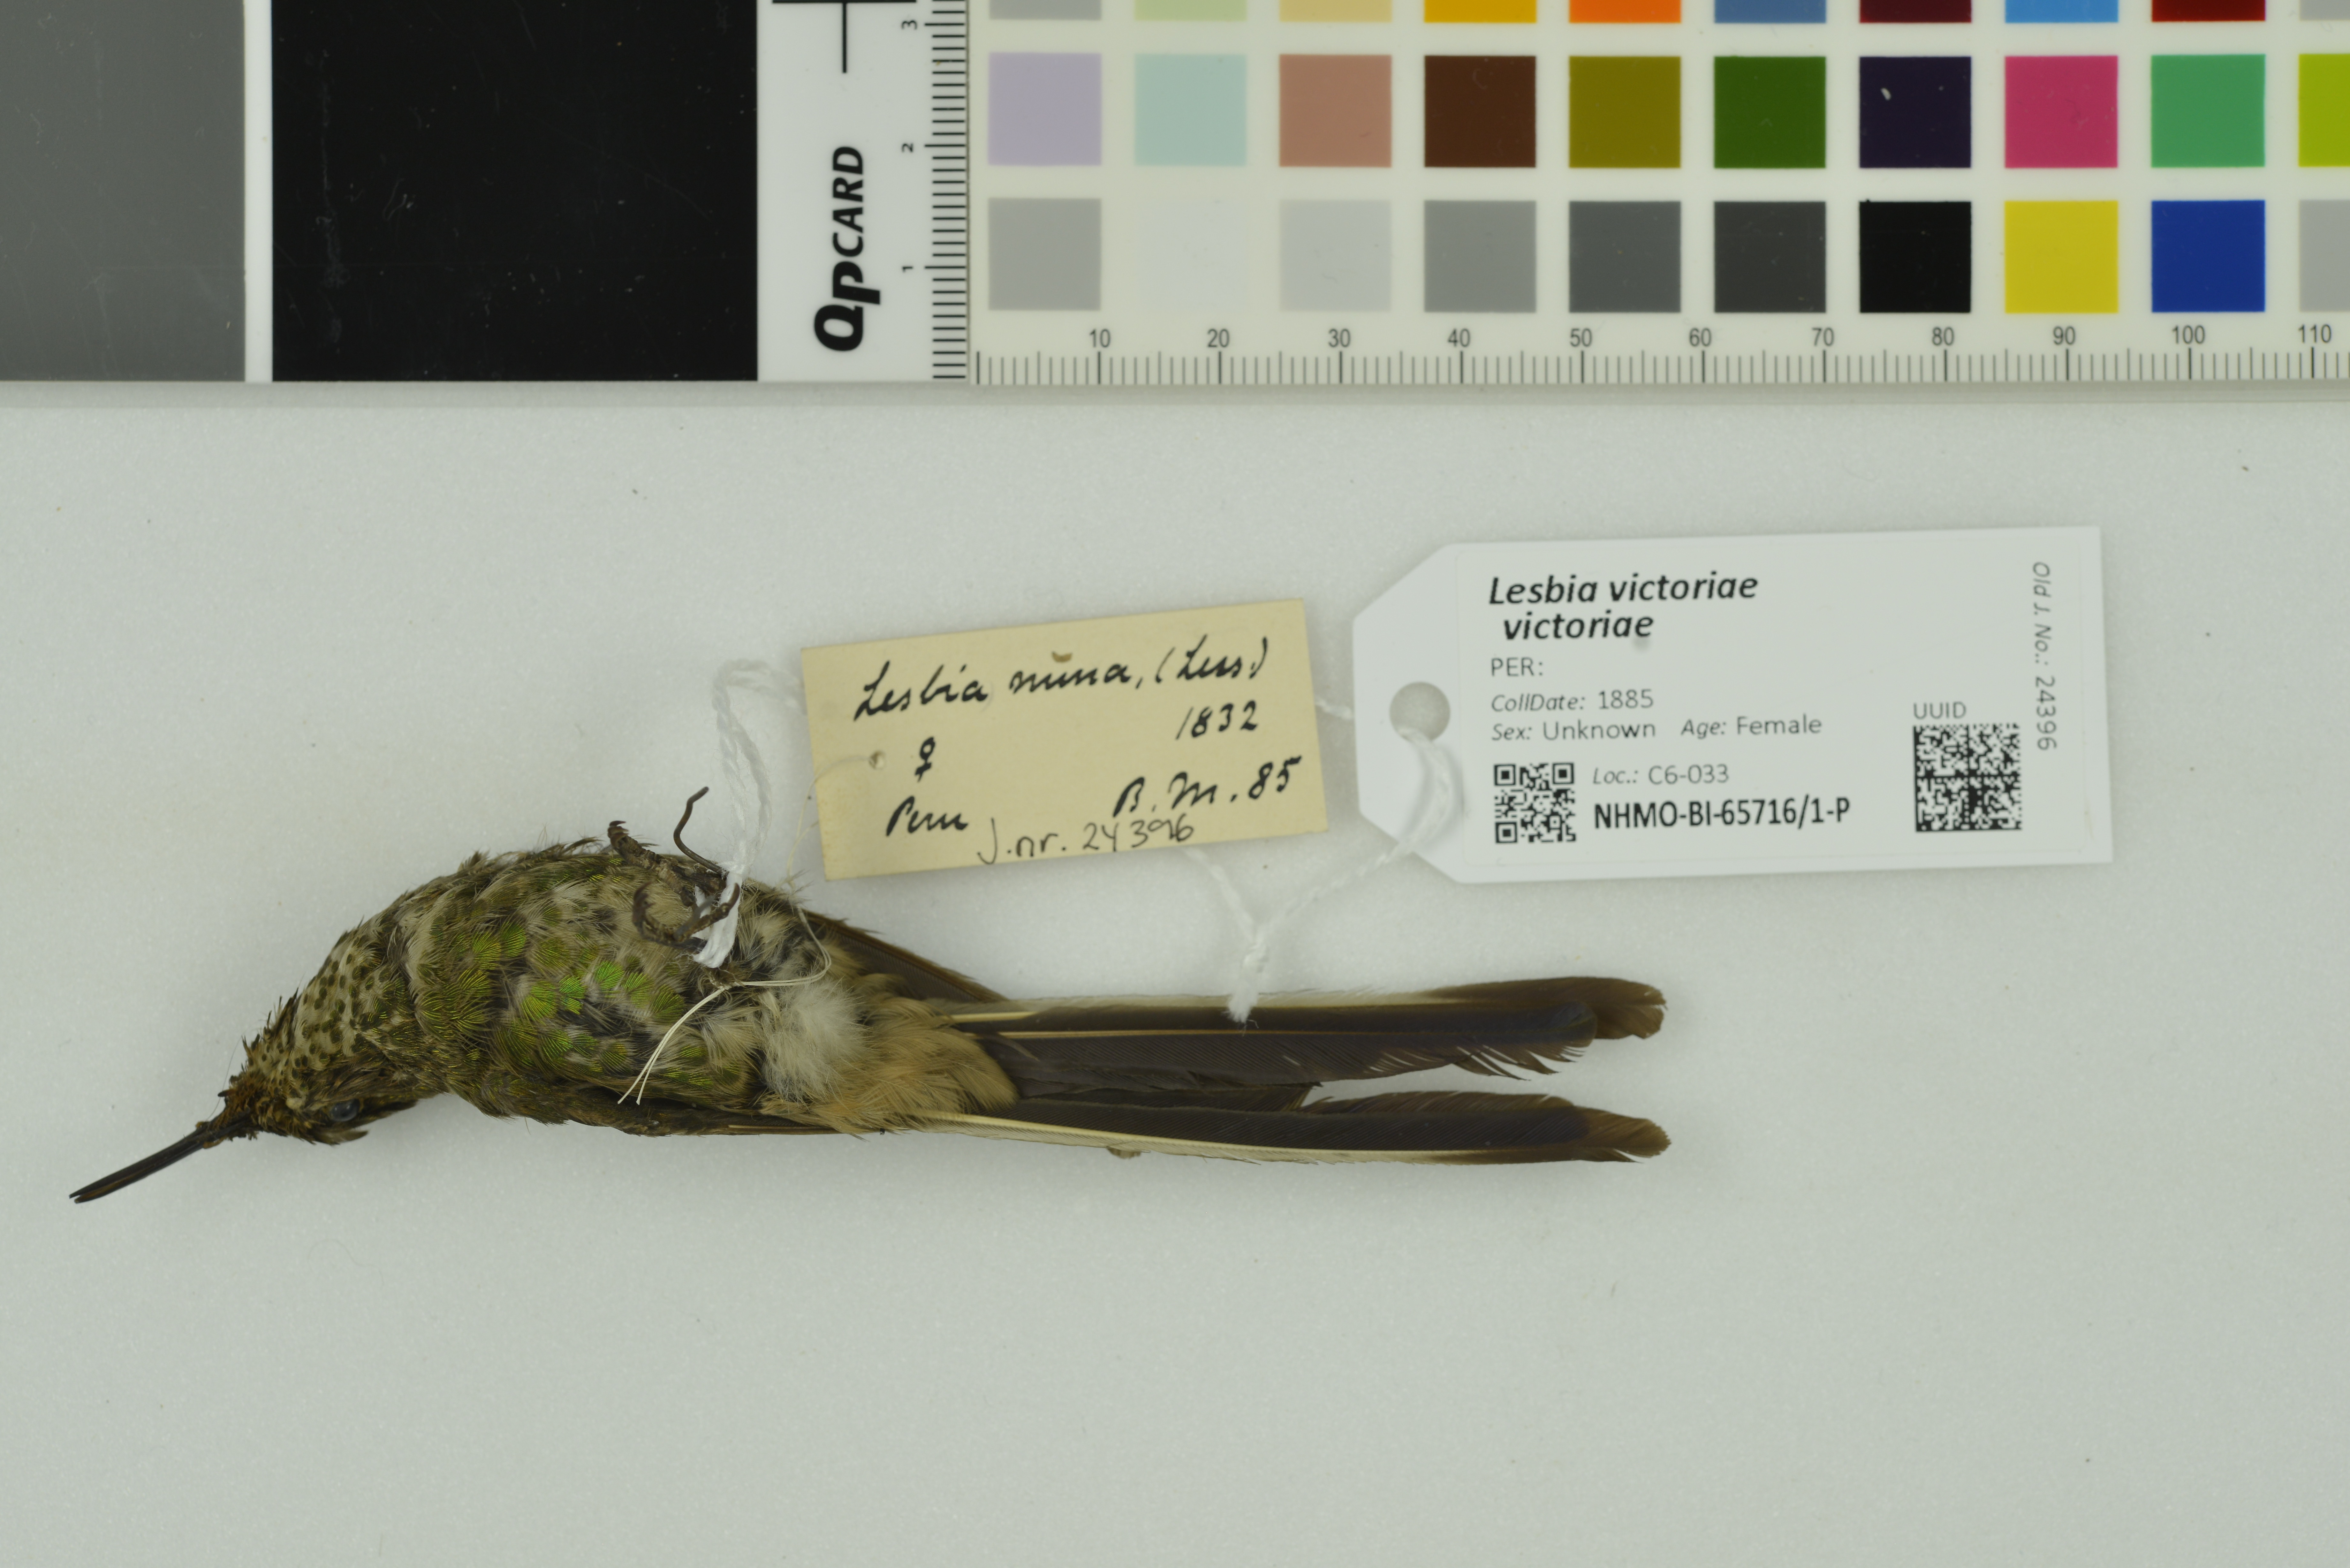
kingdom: Animalia
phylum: Chordata
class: Aves
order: Apodiformes
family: Trochilidae
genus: Lesbia
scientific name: Lesbia victoriae
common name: Black-tailed trainbearer
